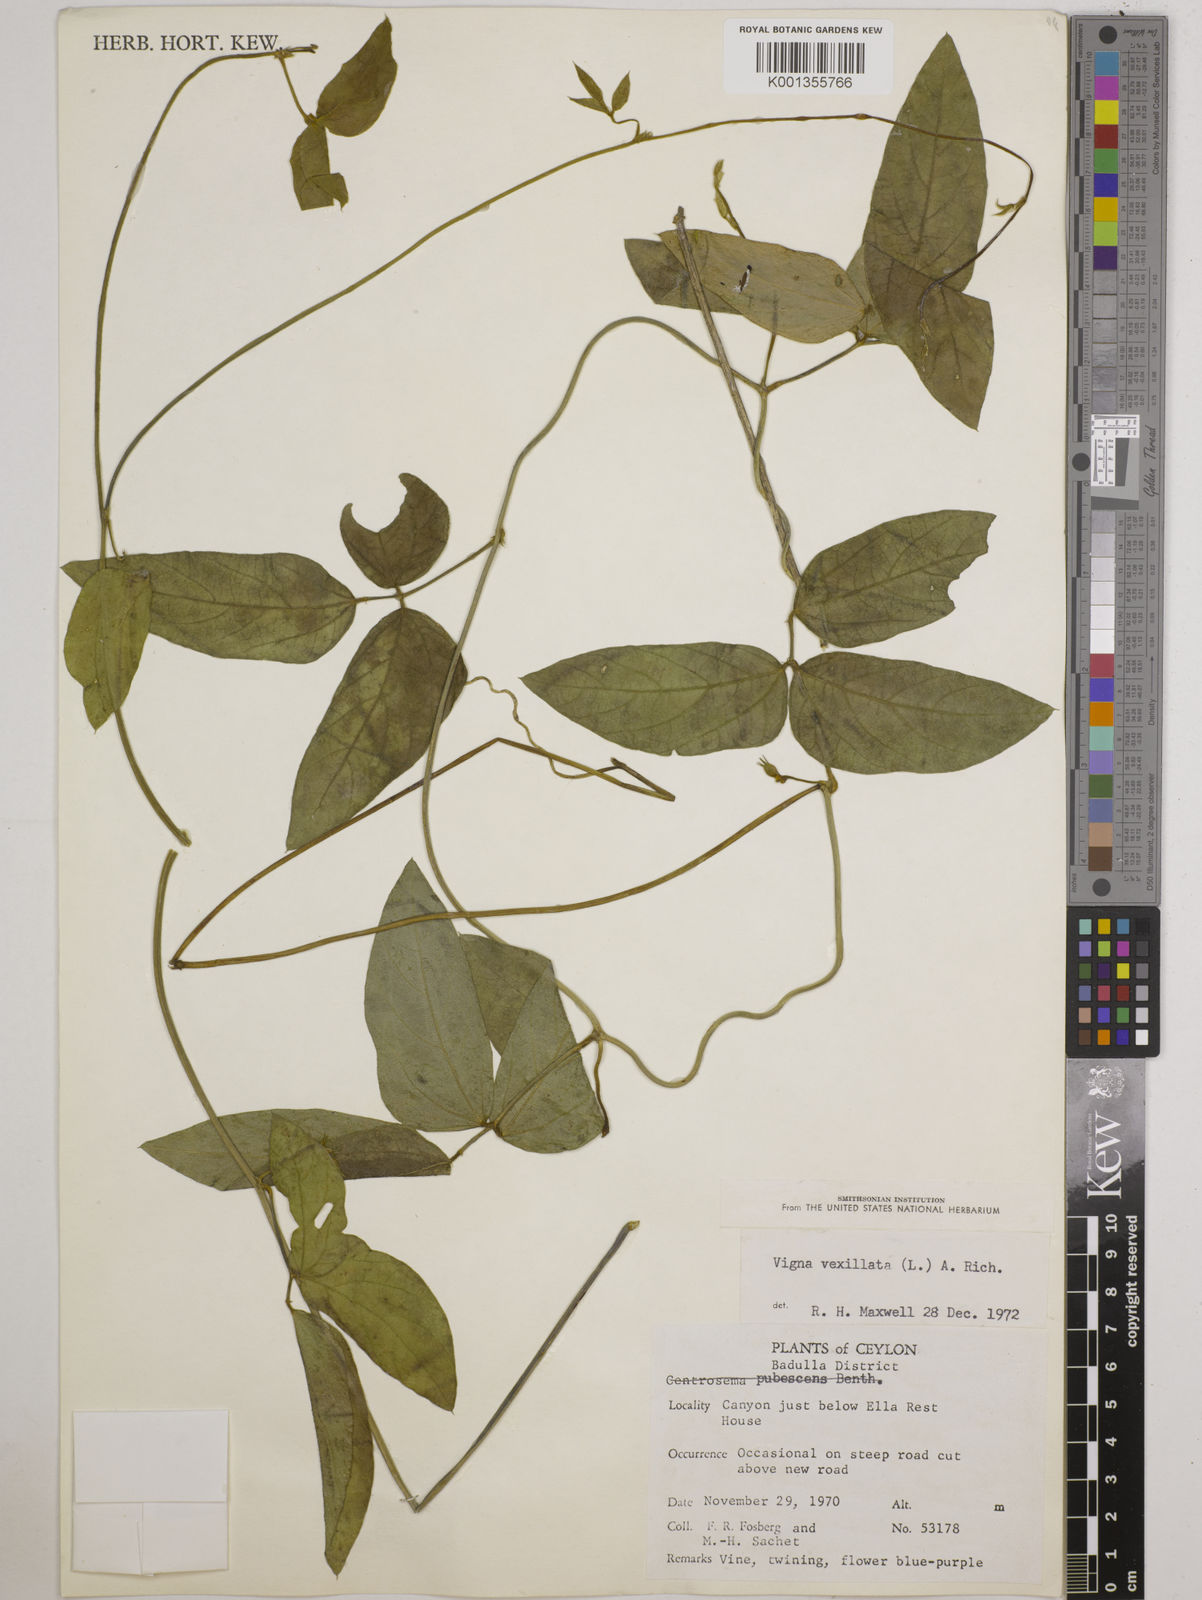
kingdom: Plantae
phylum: Tracheophyta
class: Magnoliopsida
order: Fabales
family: Fabaceae
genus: Vigna
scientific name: Vigna vexillata
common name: Zombi pea
